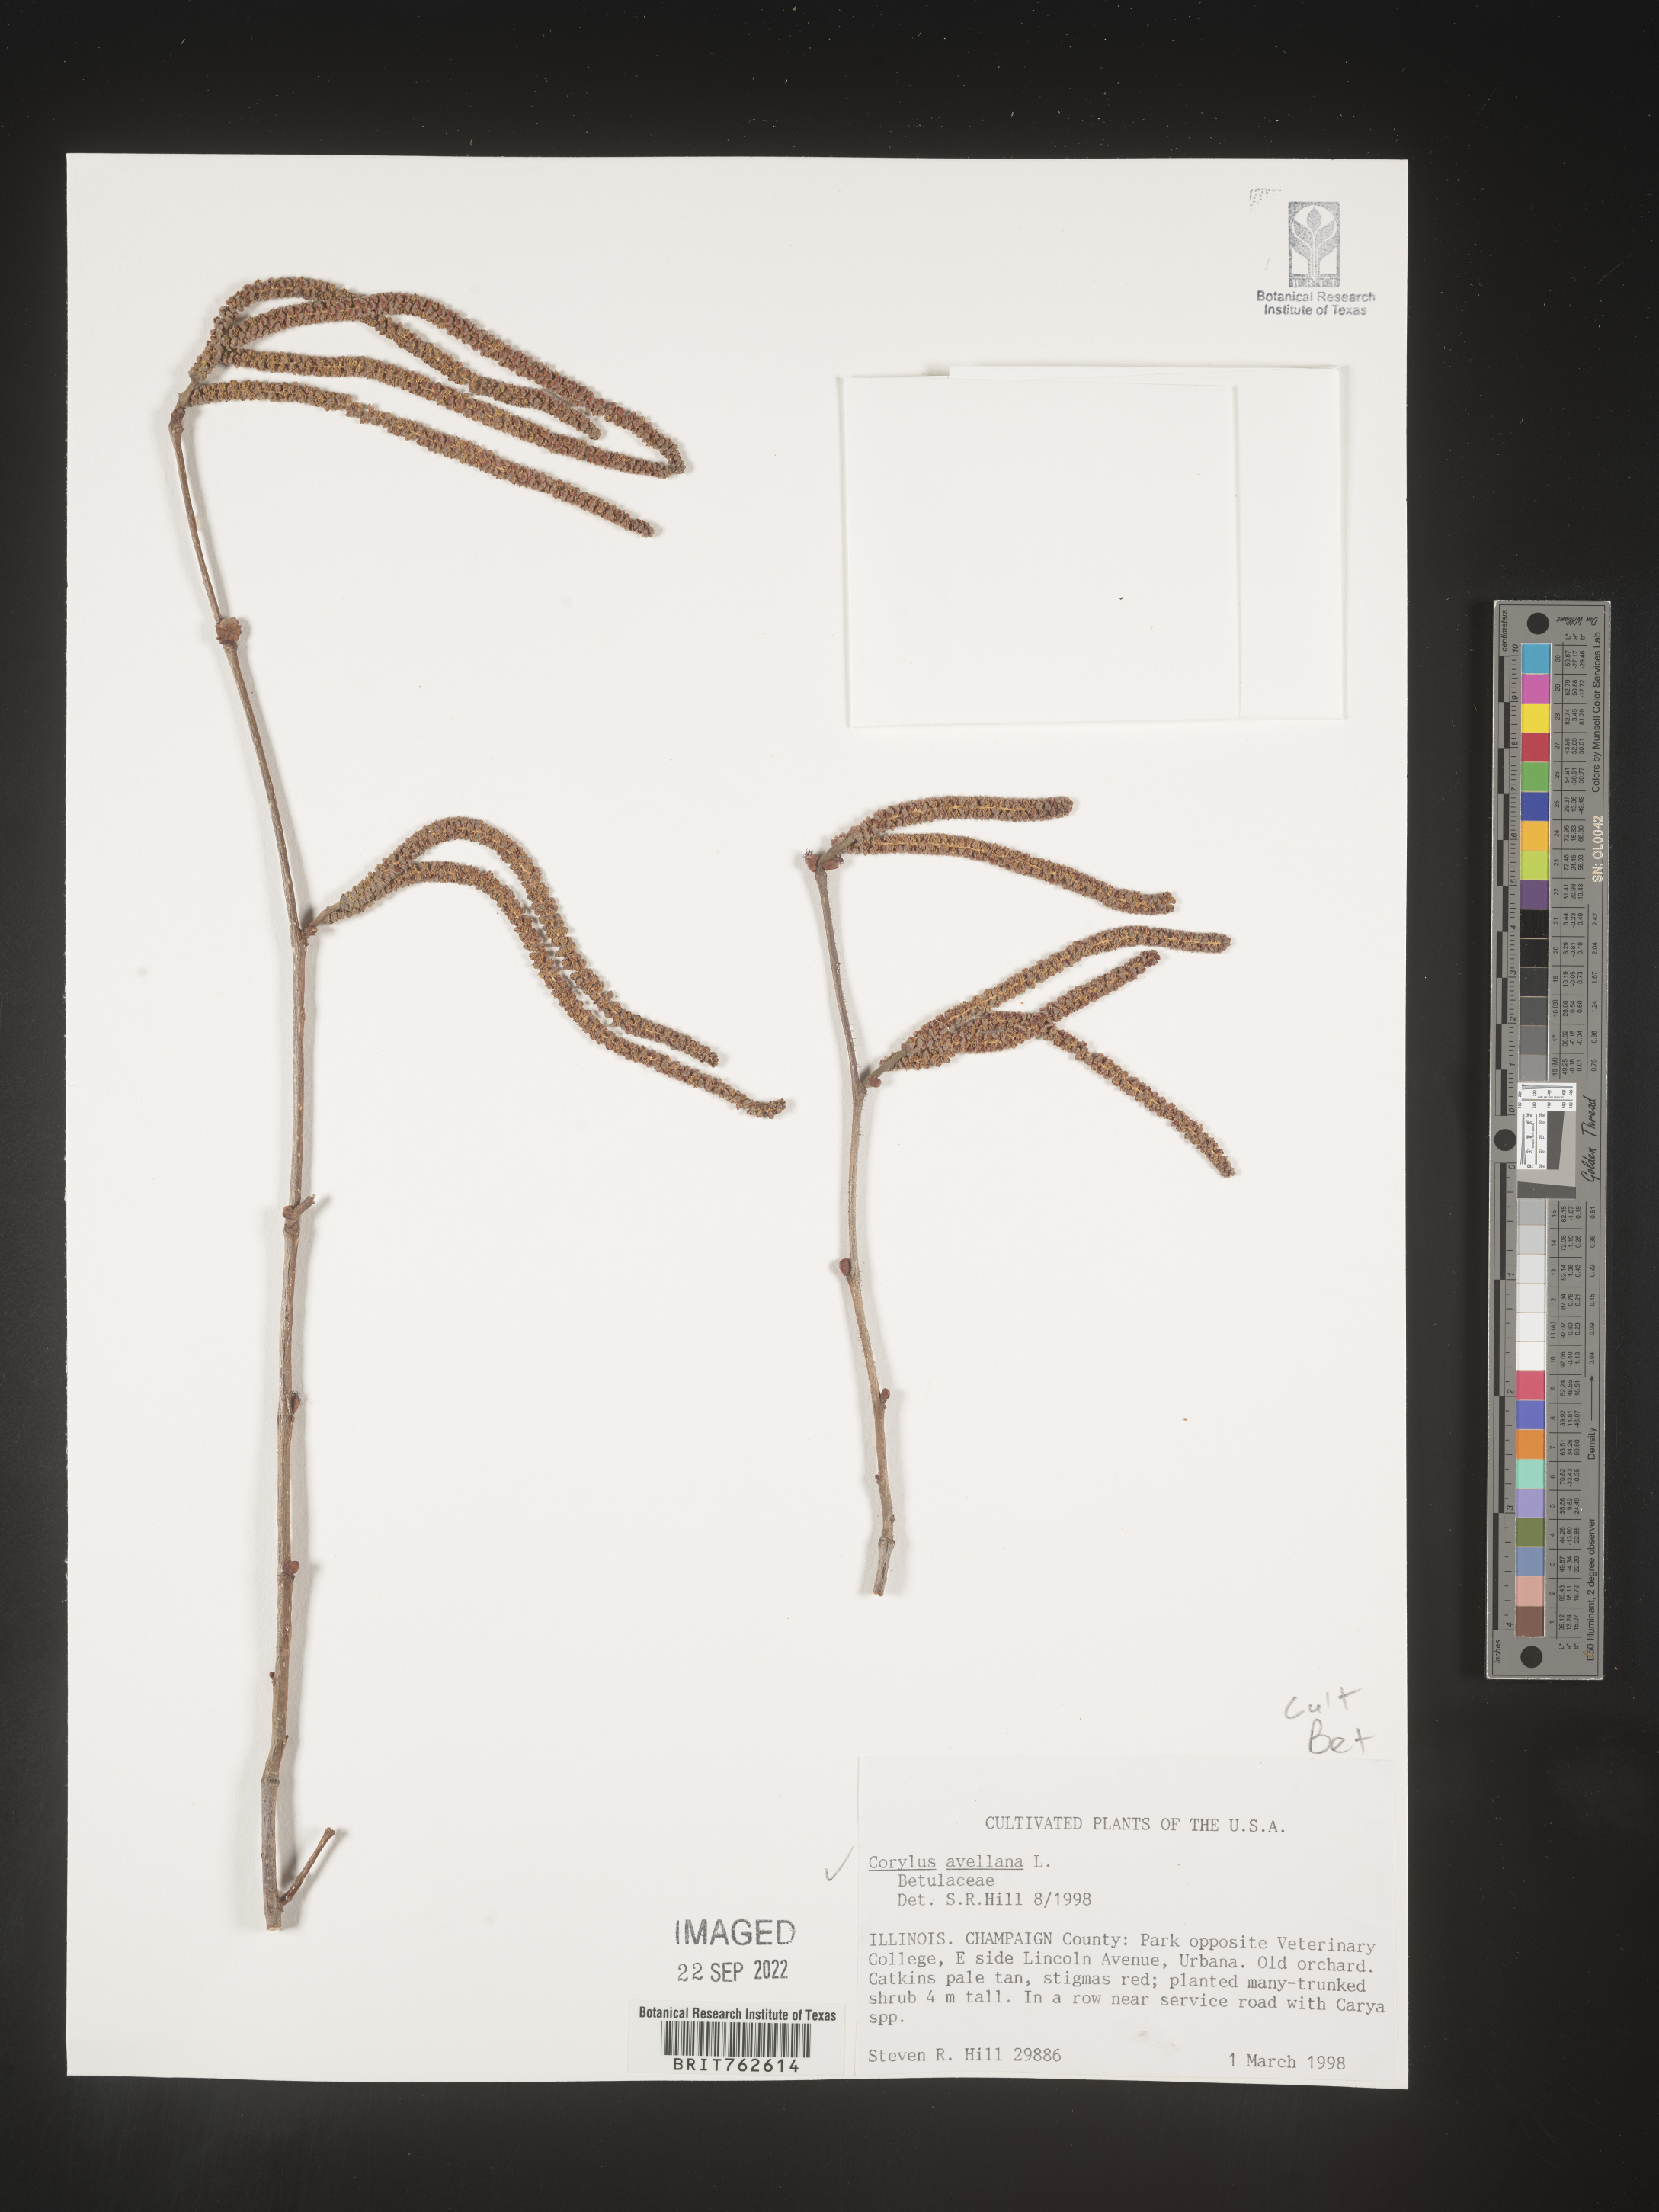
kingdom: Plantae
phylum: Tracheophyta
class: Magnoliopsida
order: Fagales
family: Betulaceae
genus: Corylus
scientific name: Corylus
